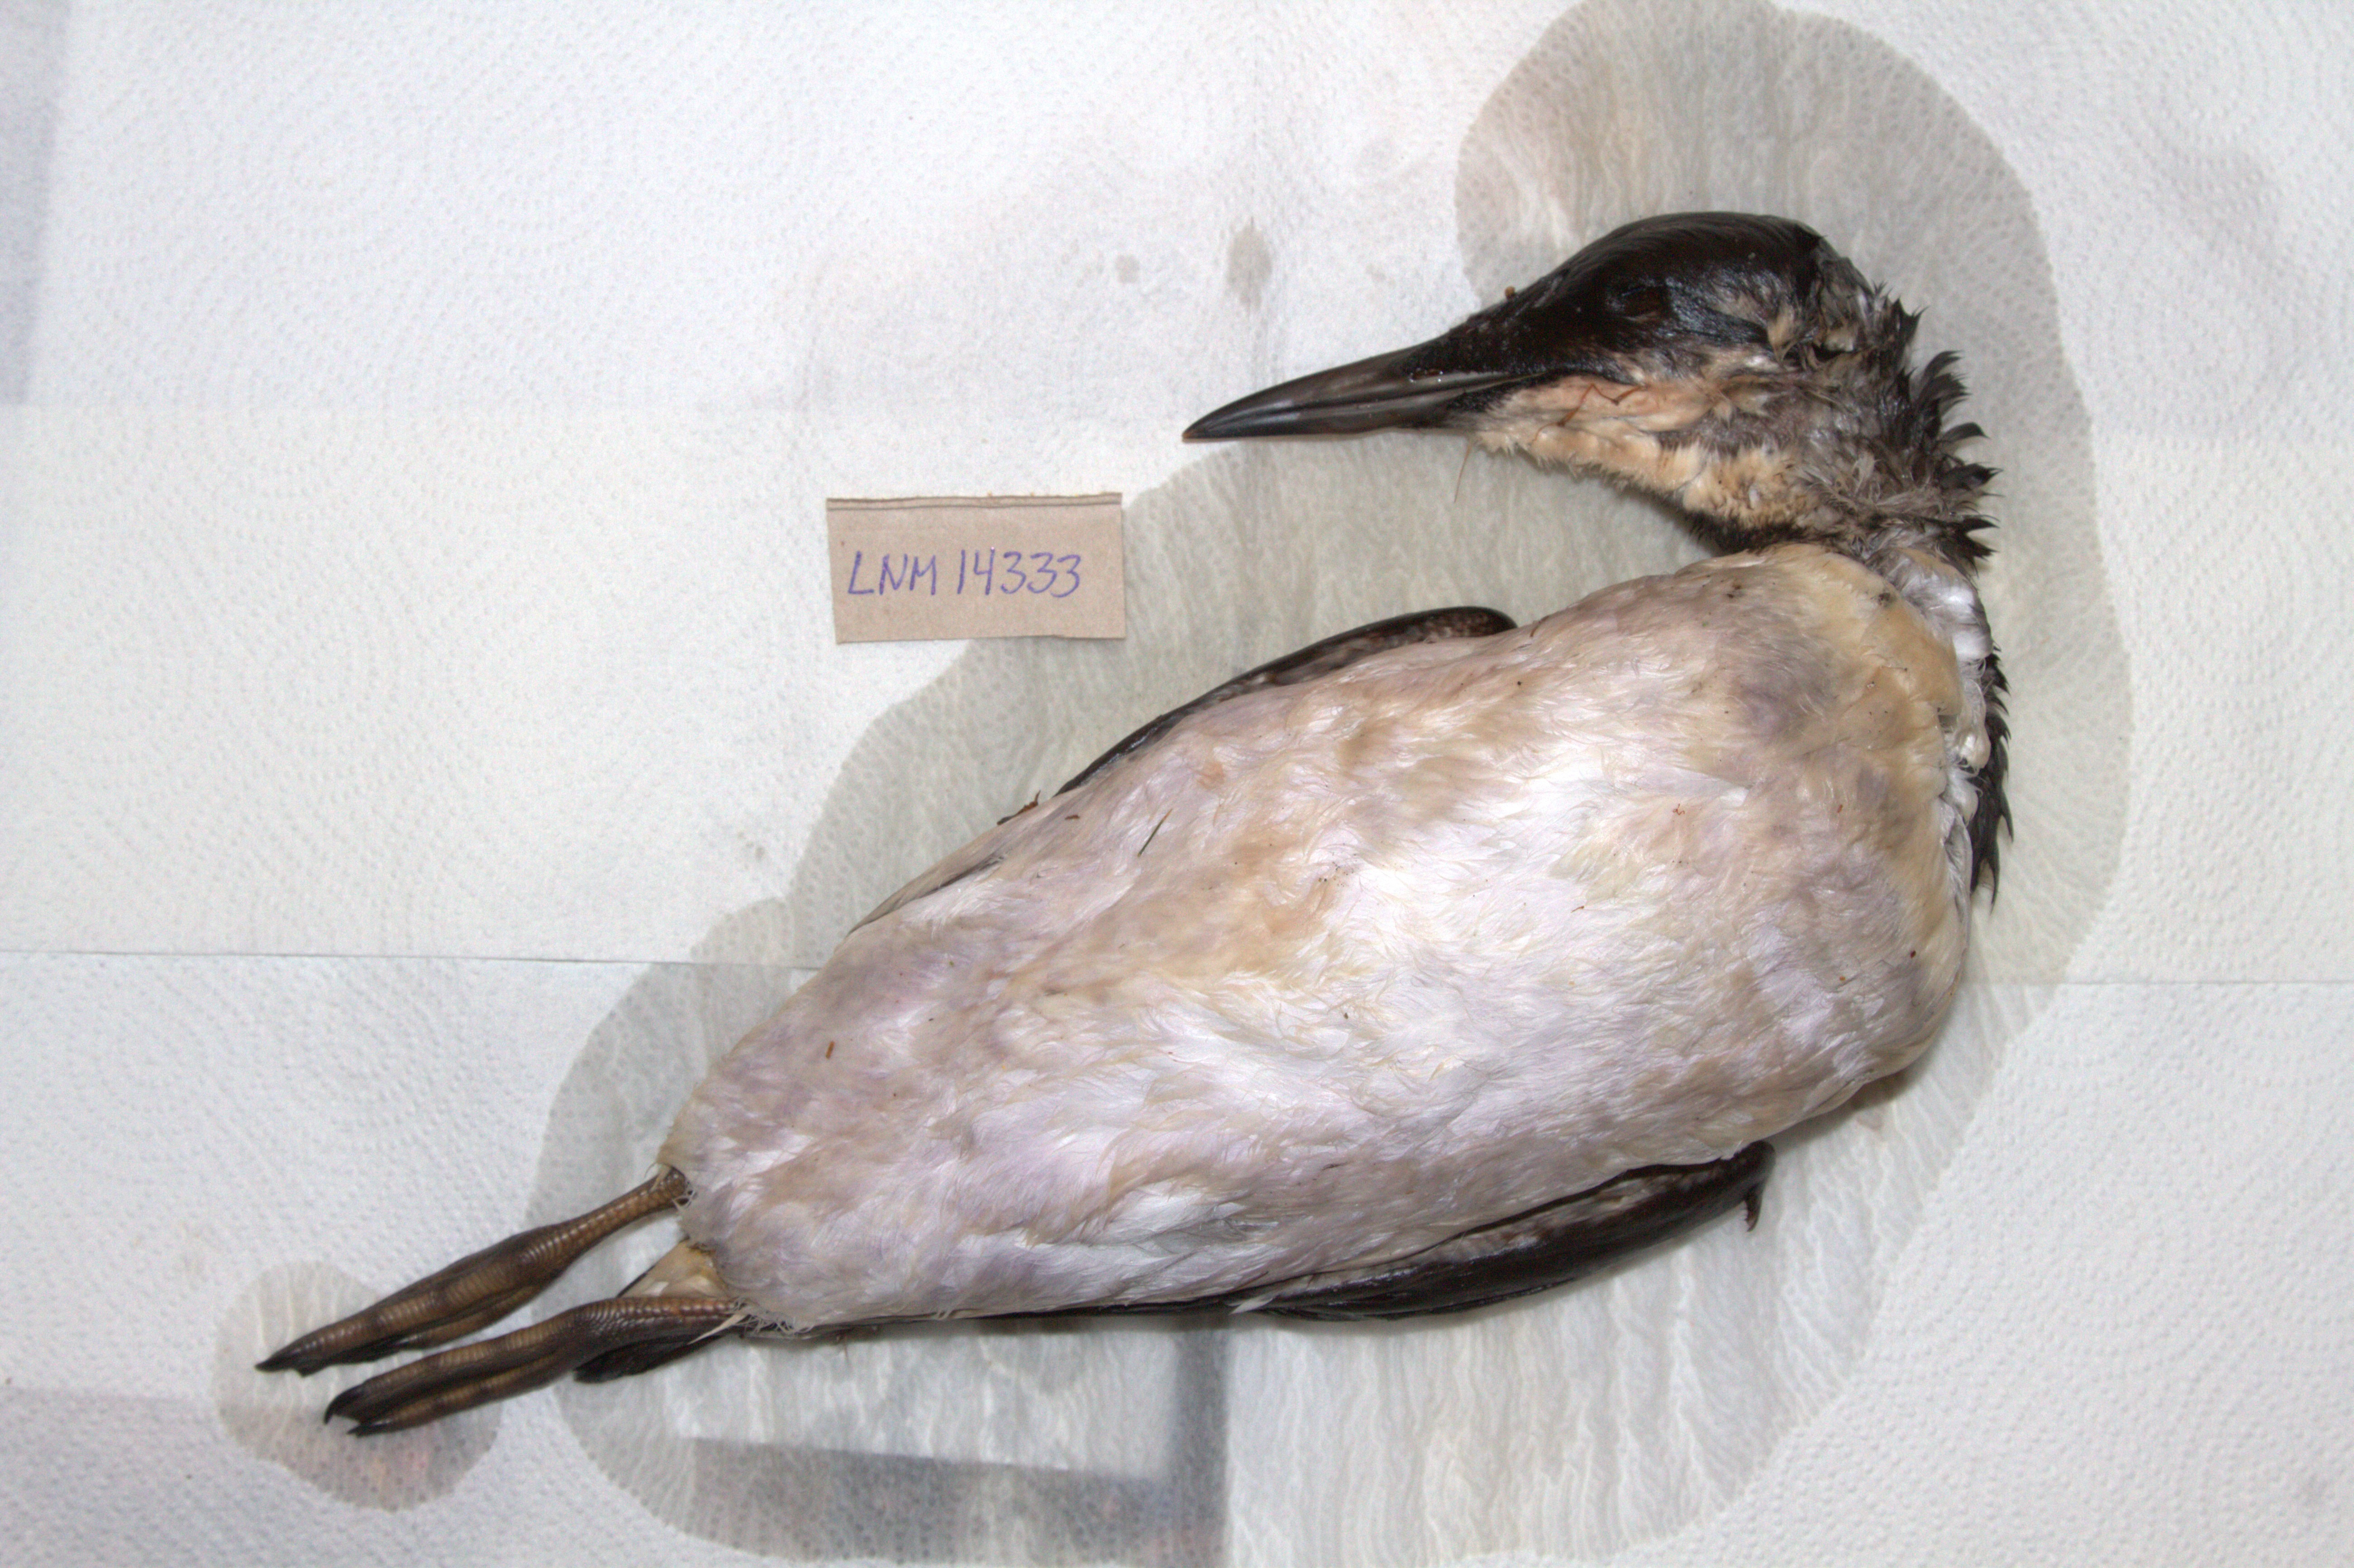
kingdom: Animalia
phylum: Chordata
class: Aves
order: Charadriiformes
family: Alcidae
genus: Uria
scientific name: Uria aalge
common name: Common murre
